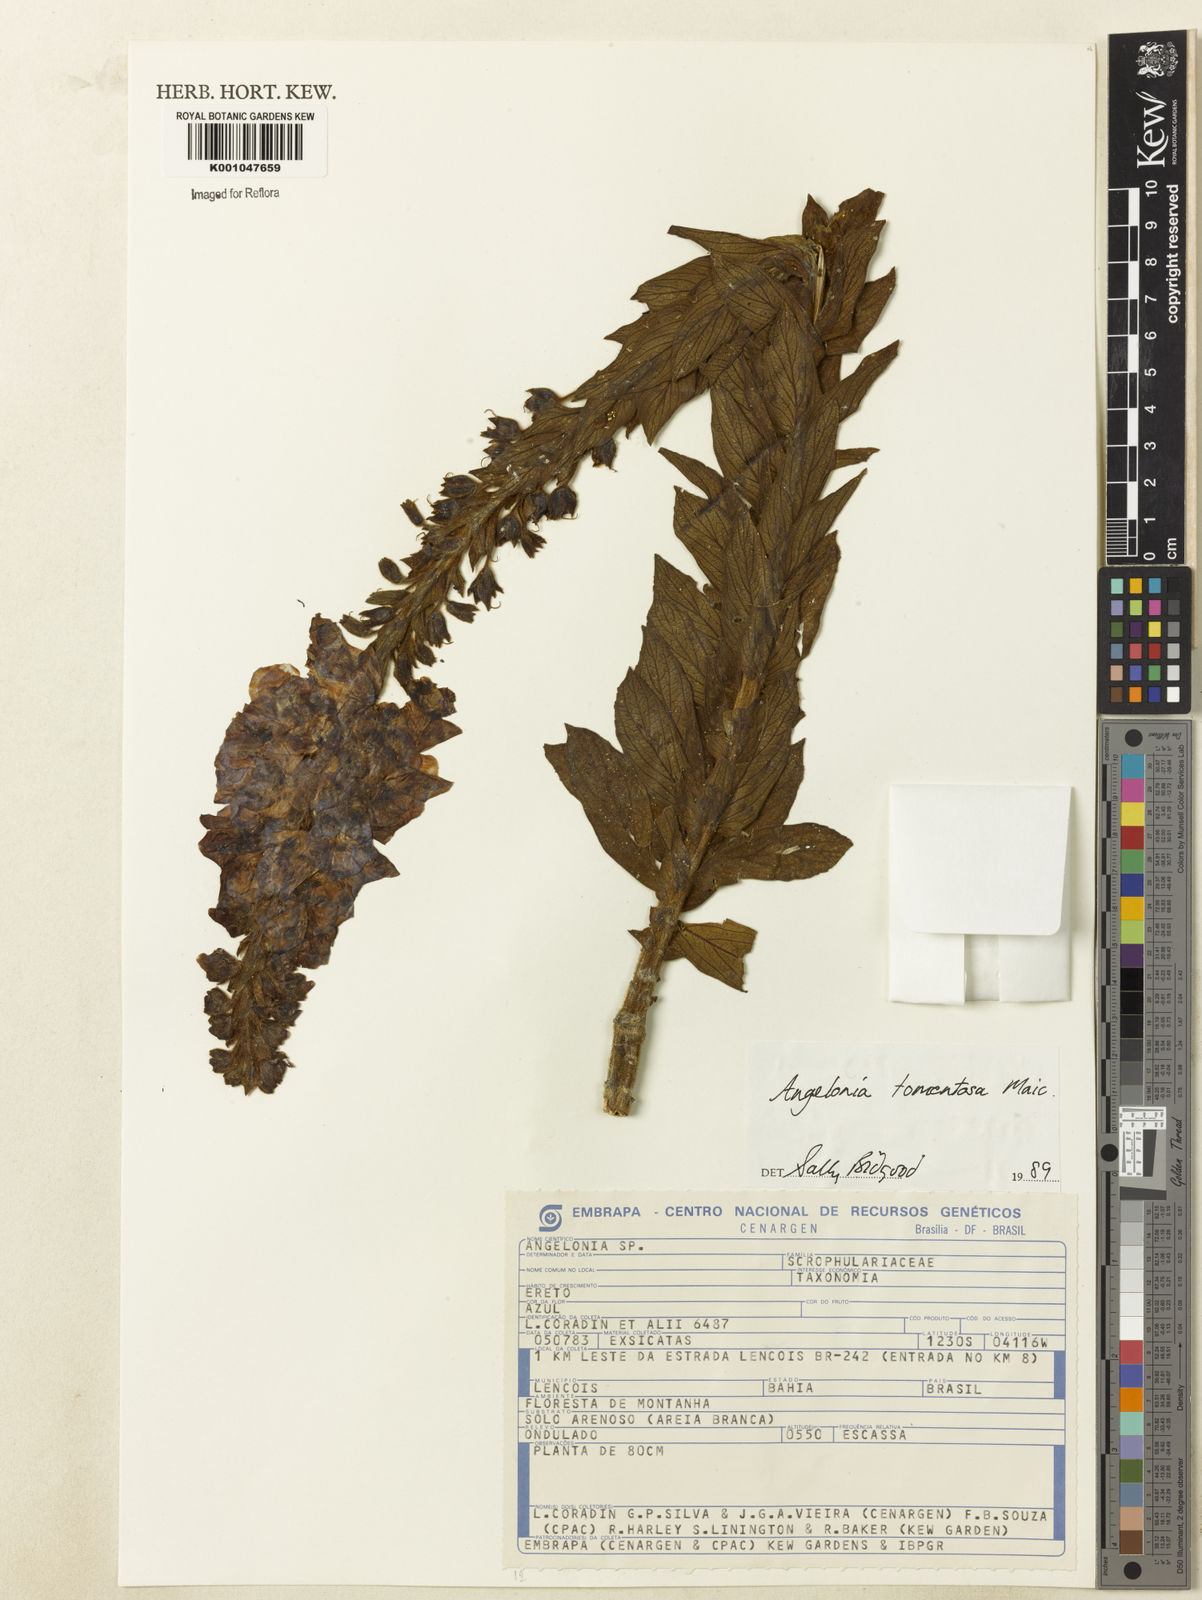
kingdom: Plantae
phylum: Tracheophyta
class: Magnoliopsida
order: Lamiales
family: Plantaginaceae
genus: Angelonia
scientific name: Angelonia tomentosa
